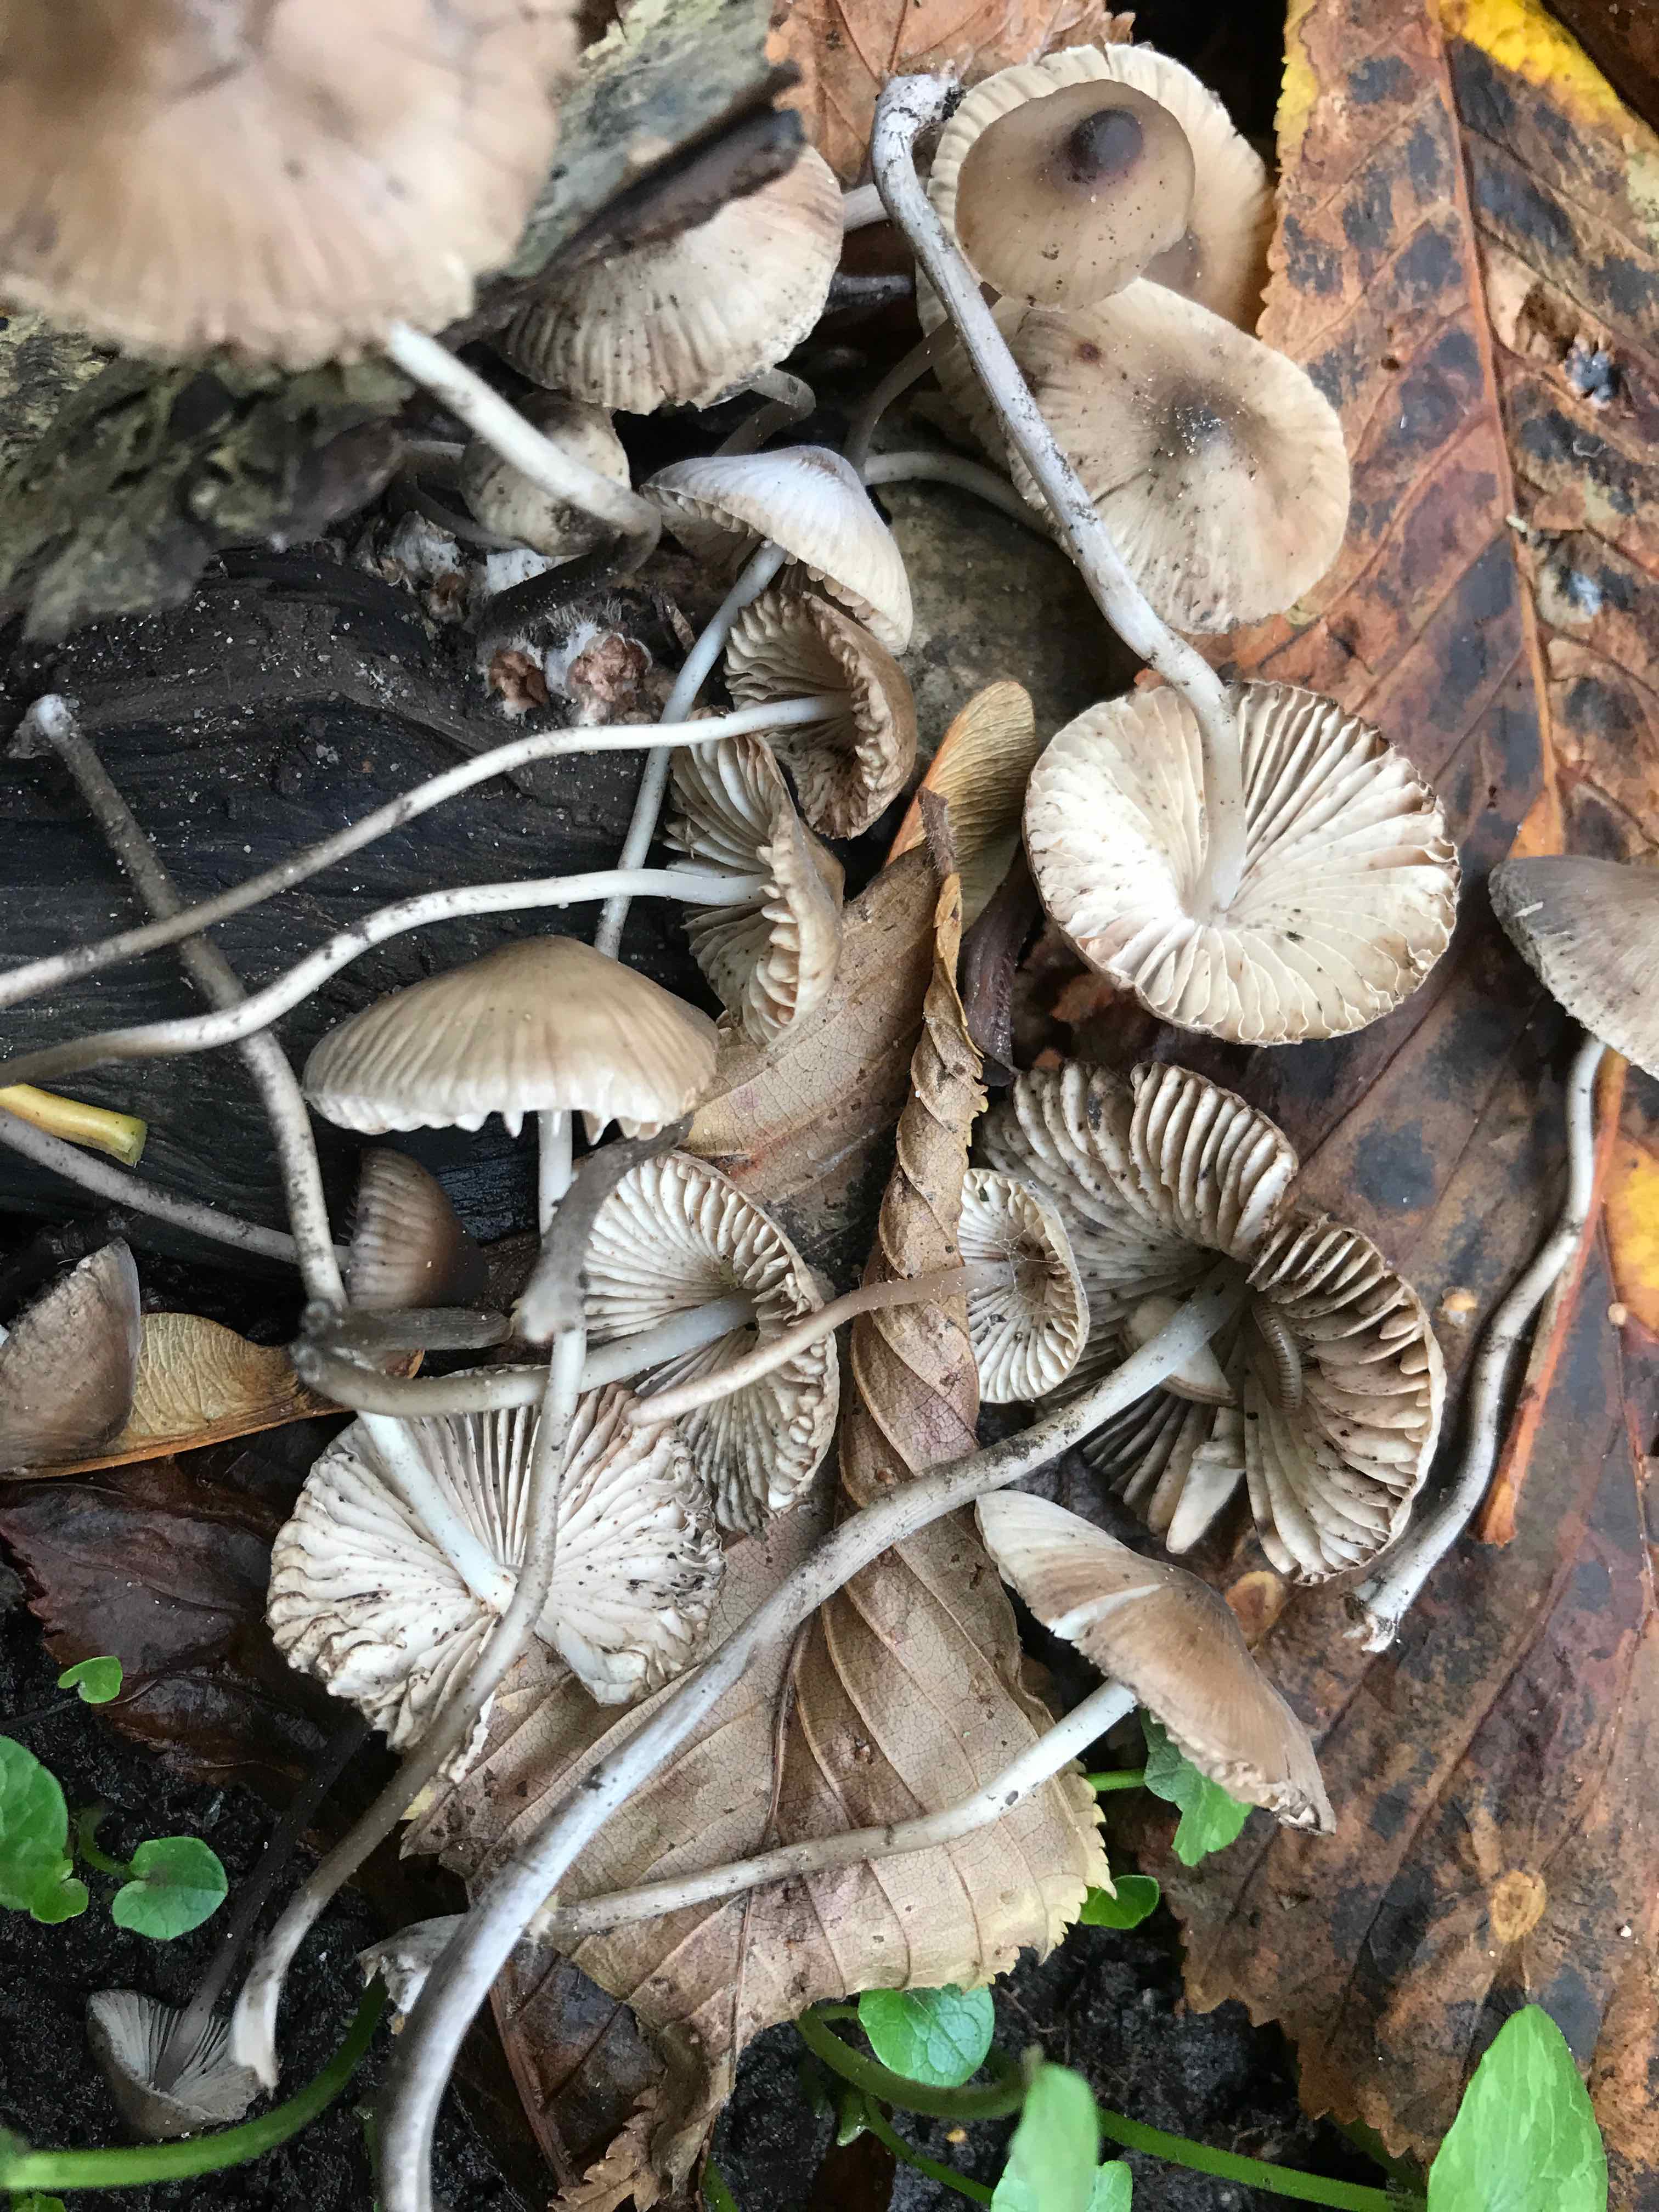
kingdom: Fungi
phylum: Basidiomycota
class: Agaricomycetes
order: Agaricales
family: Mycenaceae
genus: Mycena
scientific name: Mycena polygramma
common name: mangestribet huesvamp
